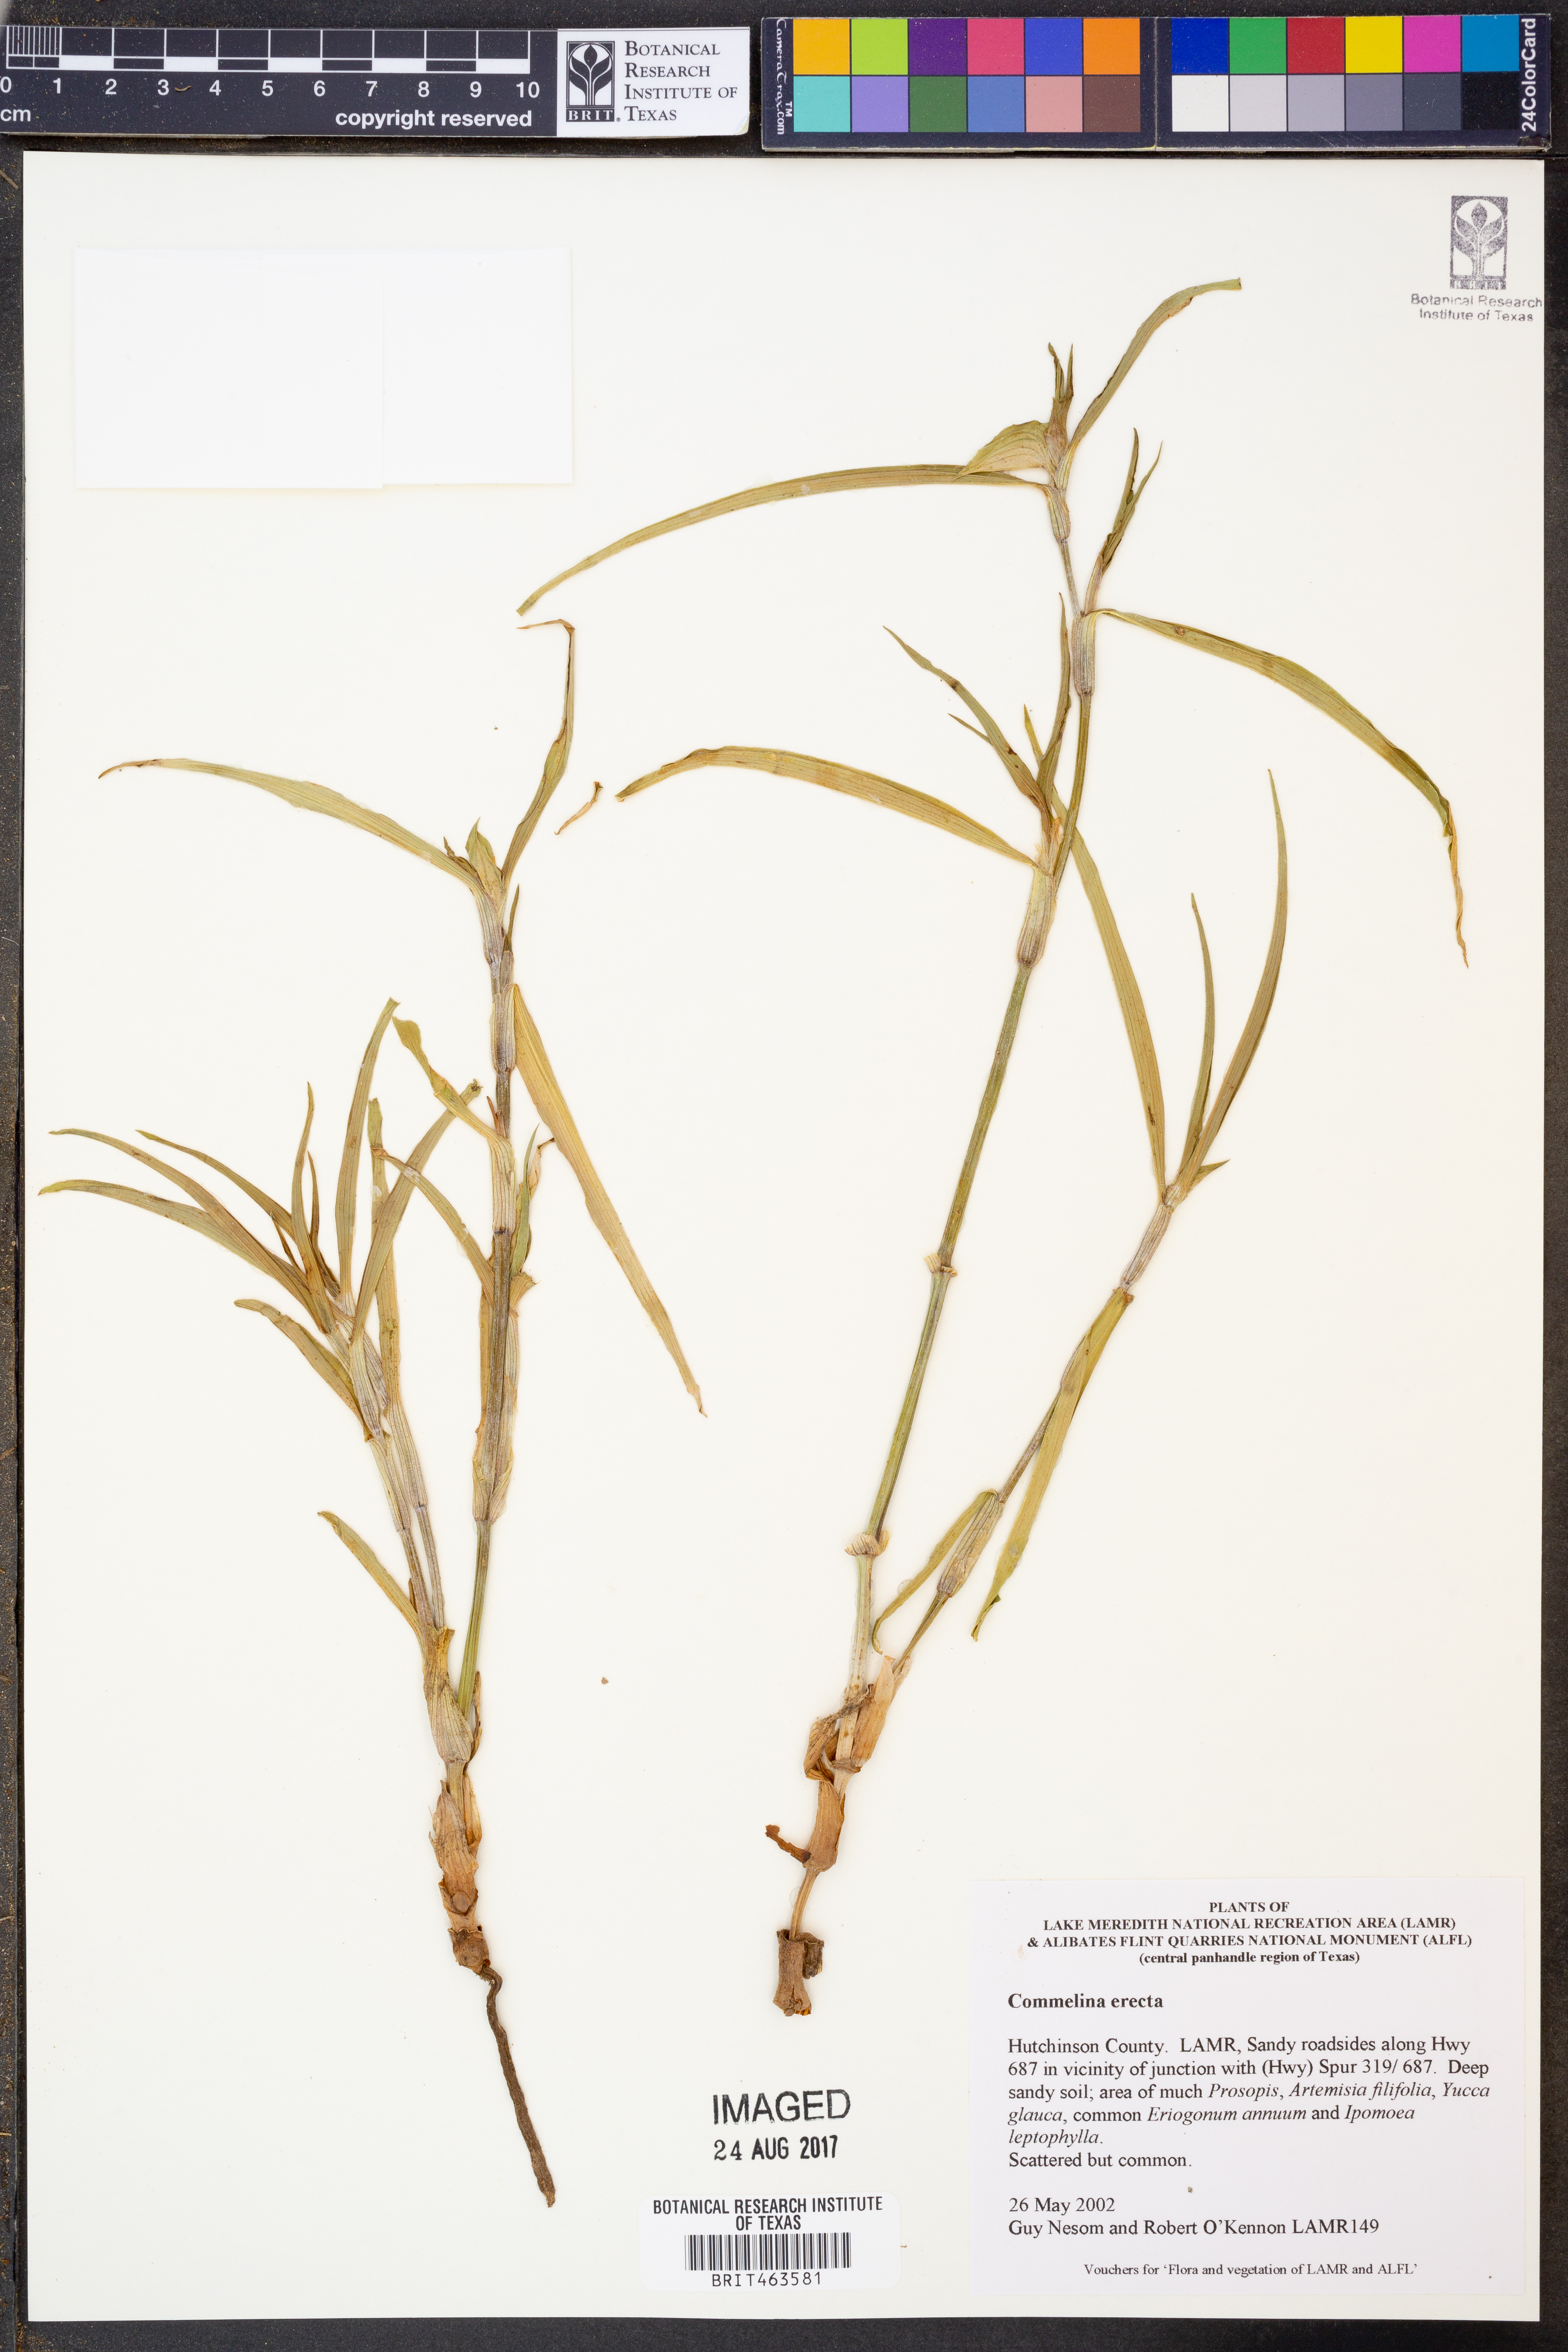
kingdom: Plantae
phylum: Tracheophyta
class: Liliopsida
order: Commelinales
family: Commelinaceae
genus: Commelina
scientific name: Commelina erecta
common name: Blousel blommetjie
